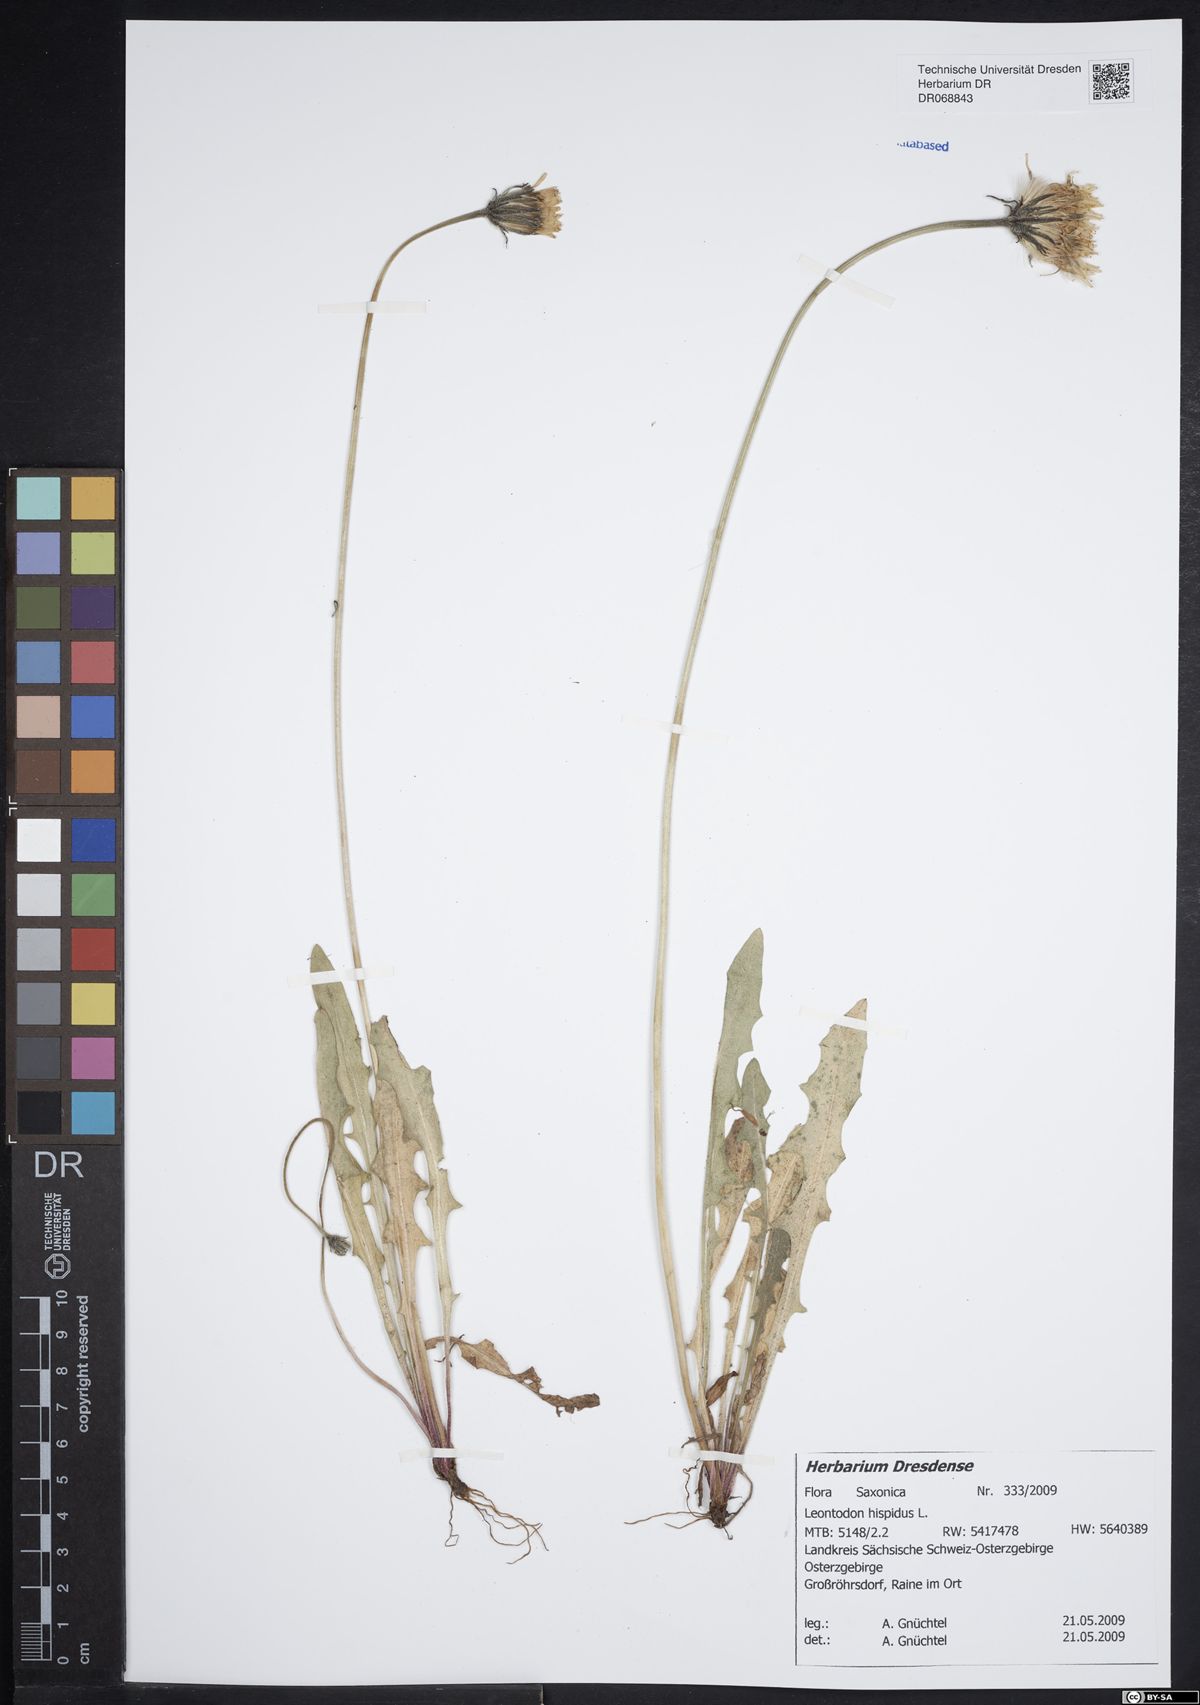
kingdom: Plantae
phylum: Tracheophyta
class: Magnoliopsida
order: Asterales
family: Asteraceae
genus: Leontodon
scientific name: Leontodon hispidus
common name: Rough hawkbit
